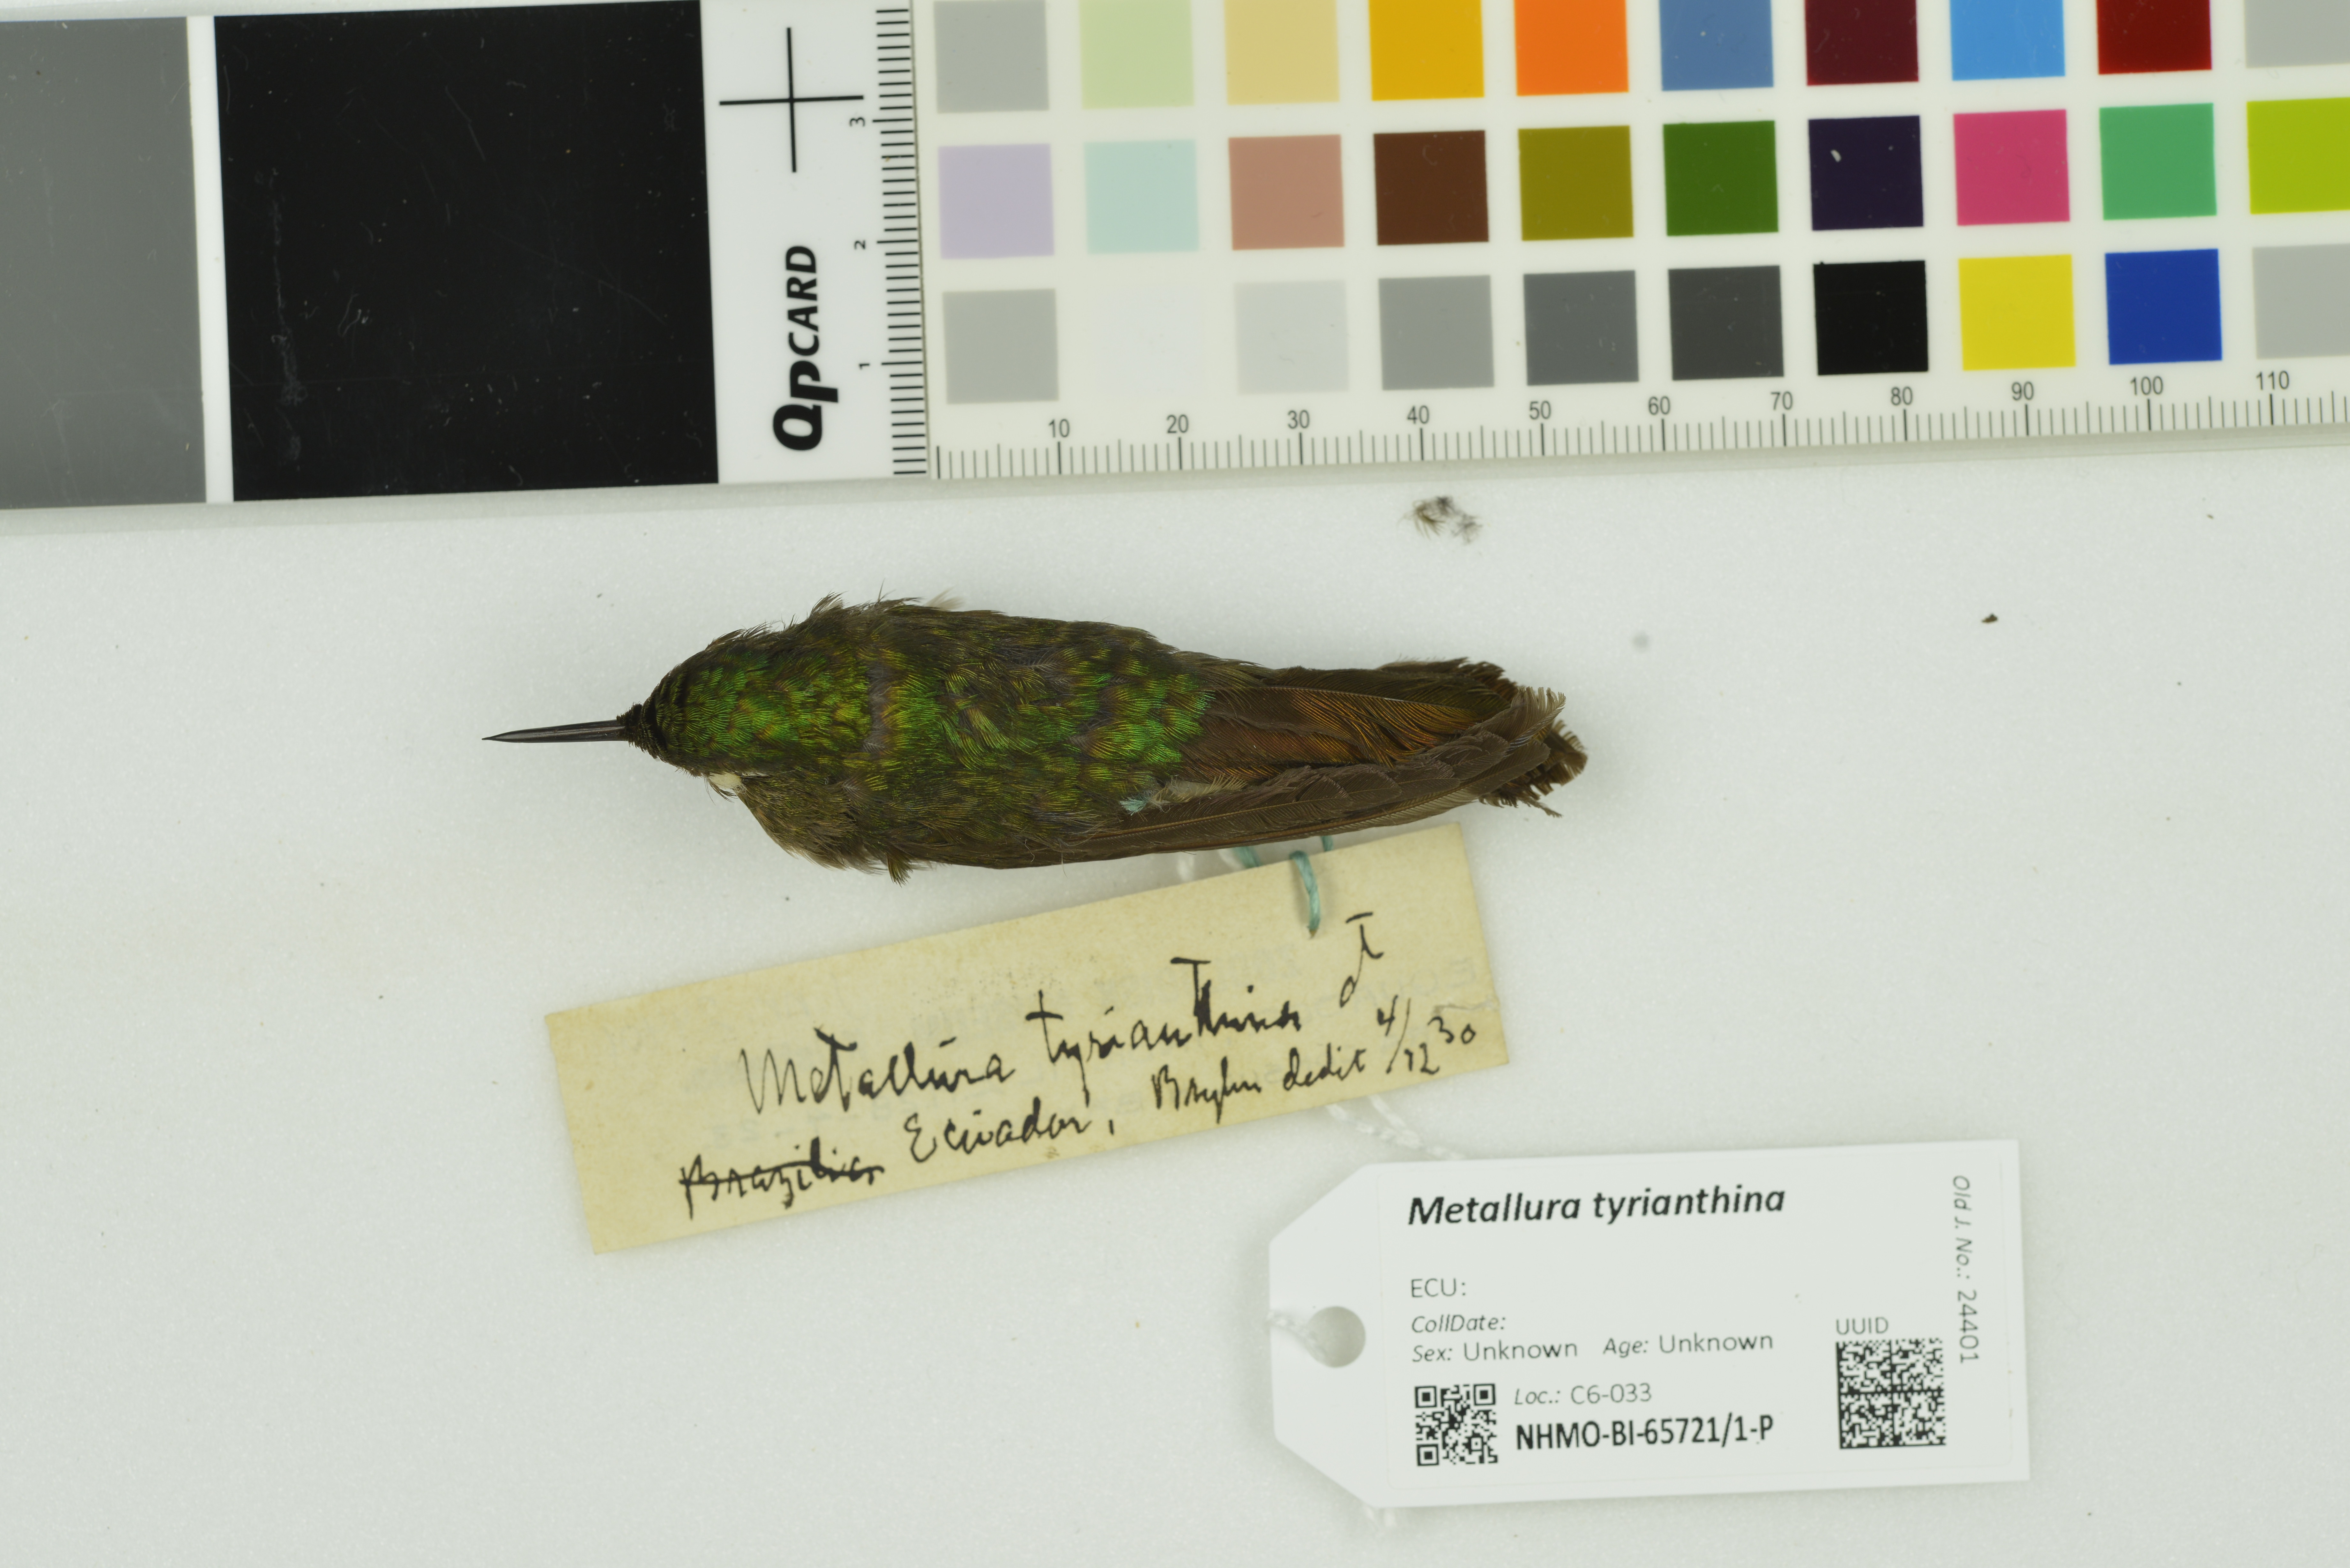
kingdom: Animalia
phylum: Chordata
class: Aves
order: Apodiformes
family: Trochilidae
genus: Metallura
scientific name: Metallura tyrianthina
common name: Tyrian metaltail
